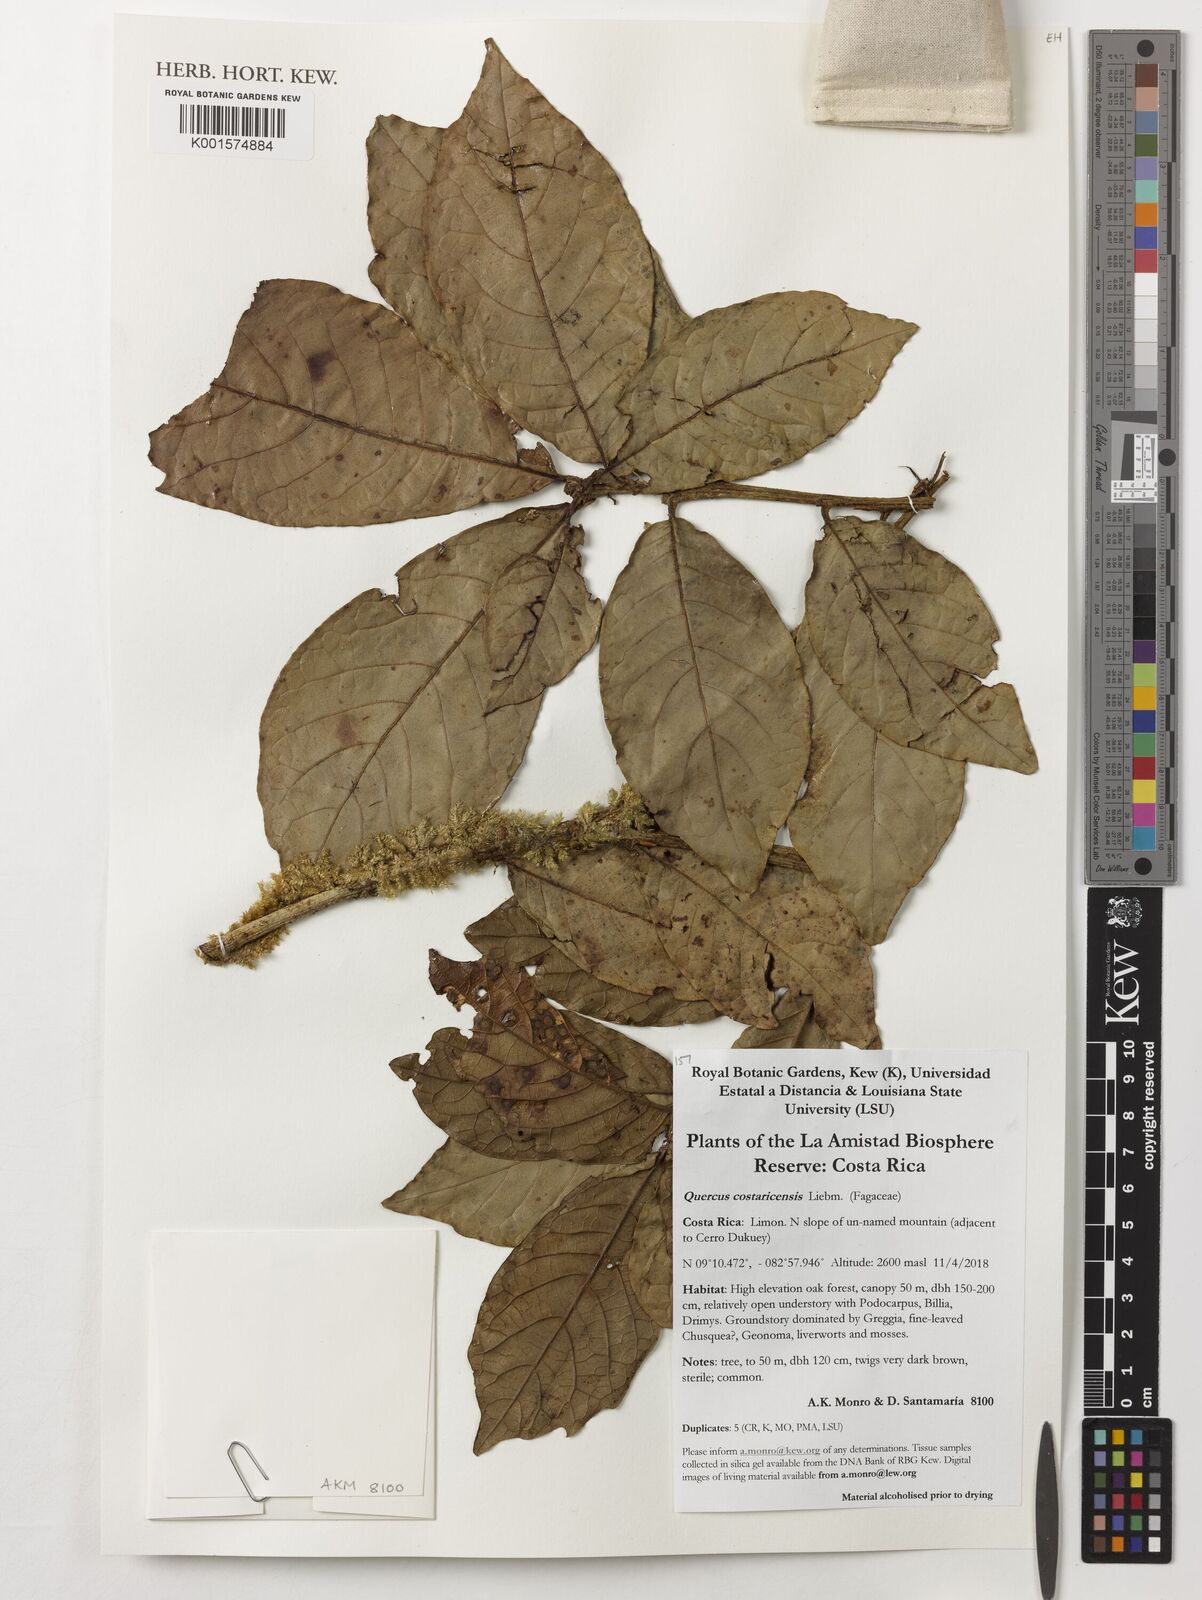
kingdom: Plantae
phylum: Tracheophyta
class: Magnoliopsida
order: Fagales
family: Fagaceae
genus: Quercus
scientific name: Quercus costaricensis
